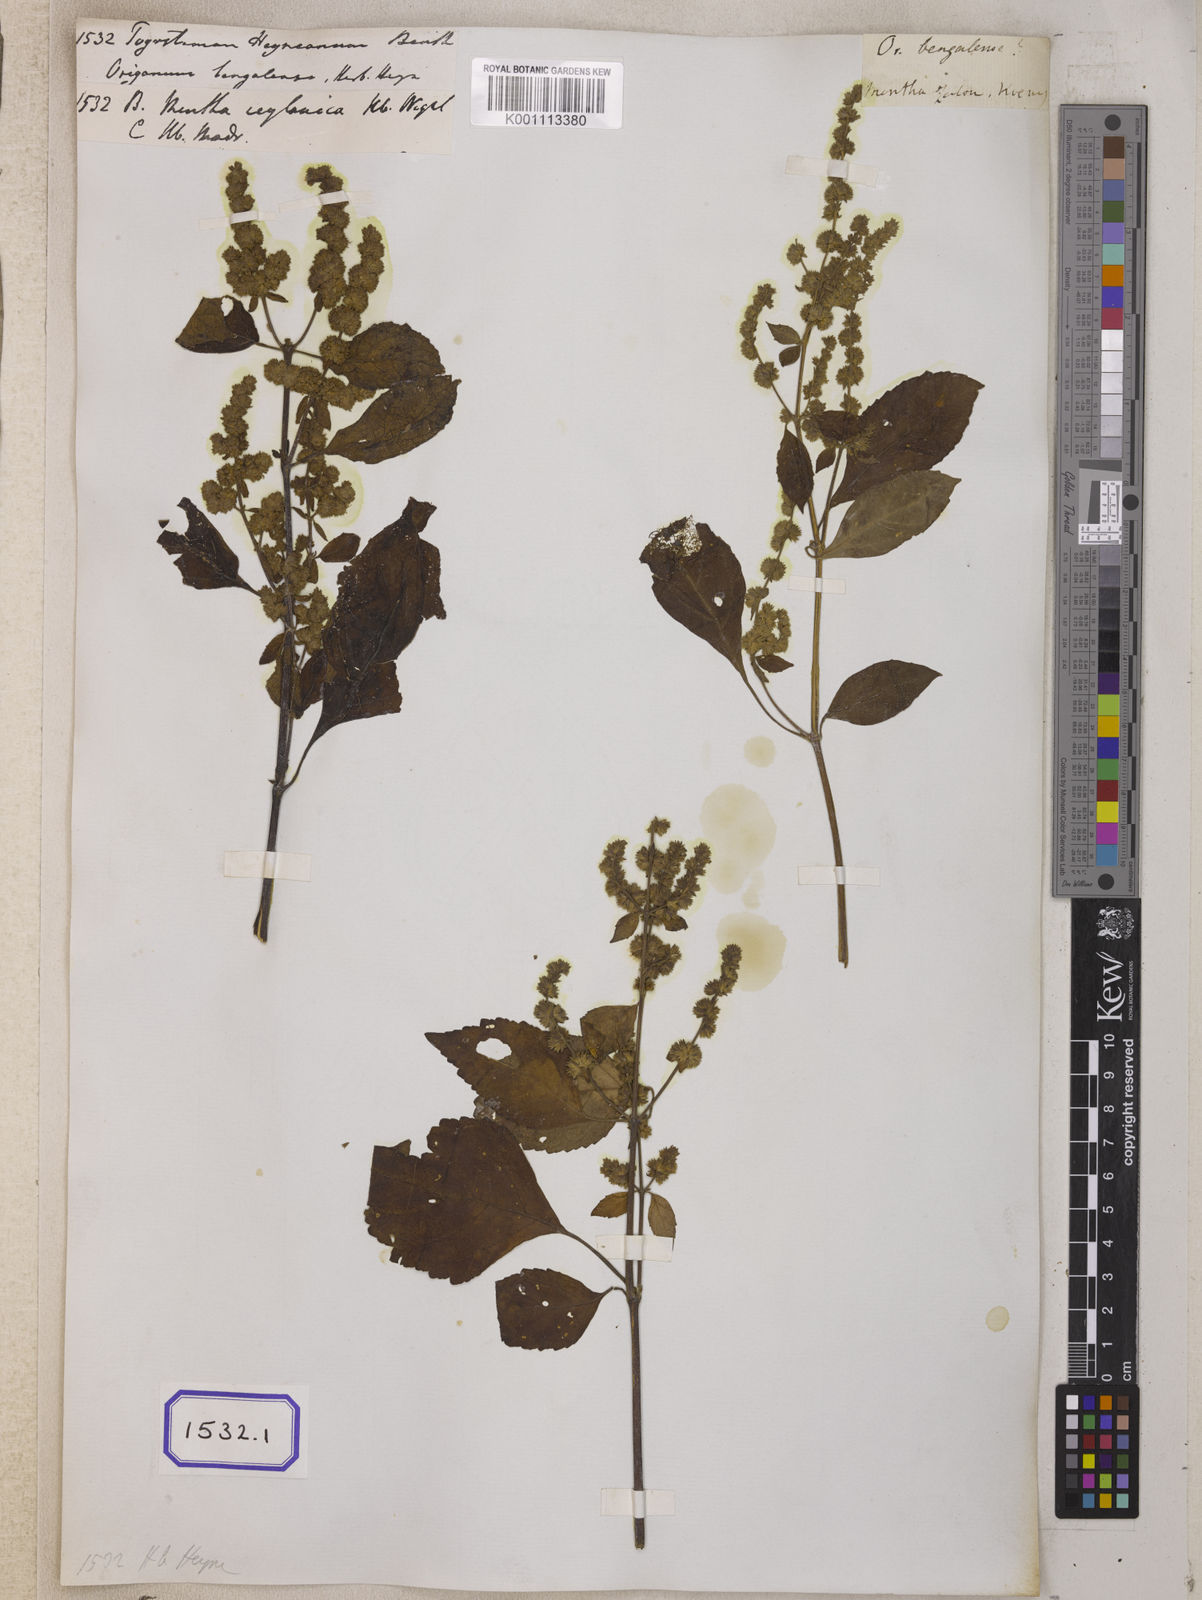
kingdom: Plantae
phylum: Tracheophyta
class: Magnoliopsida
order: Lamiales
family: Lamiaceae
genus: Pogostemon
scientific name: Pogostemon heyneanus
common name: Indian patchouli
